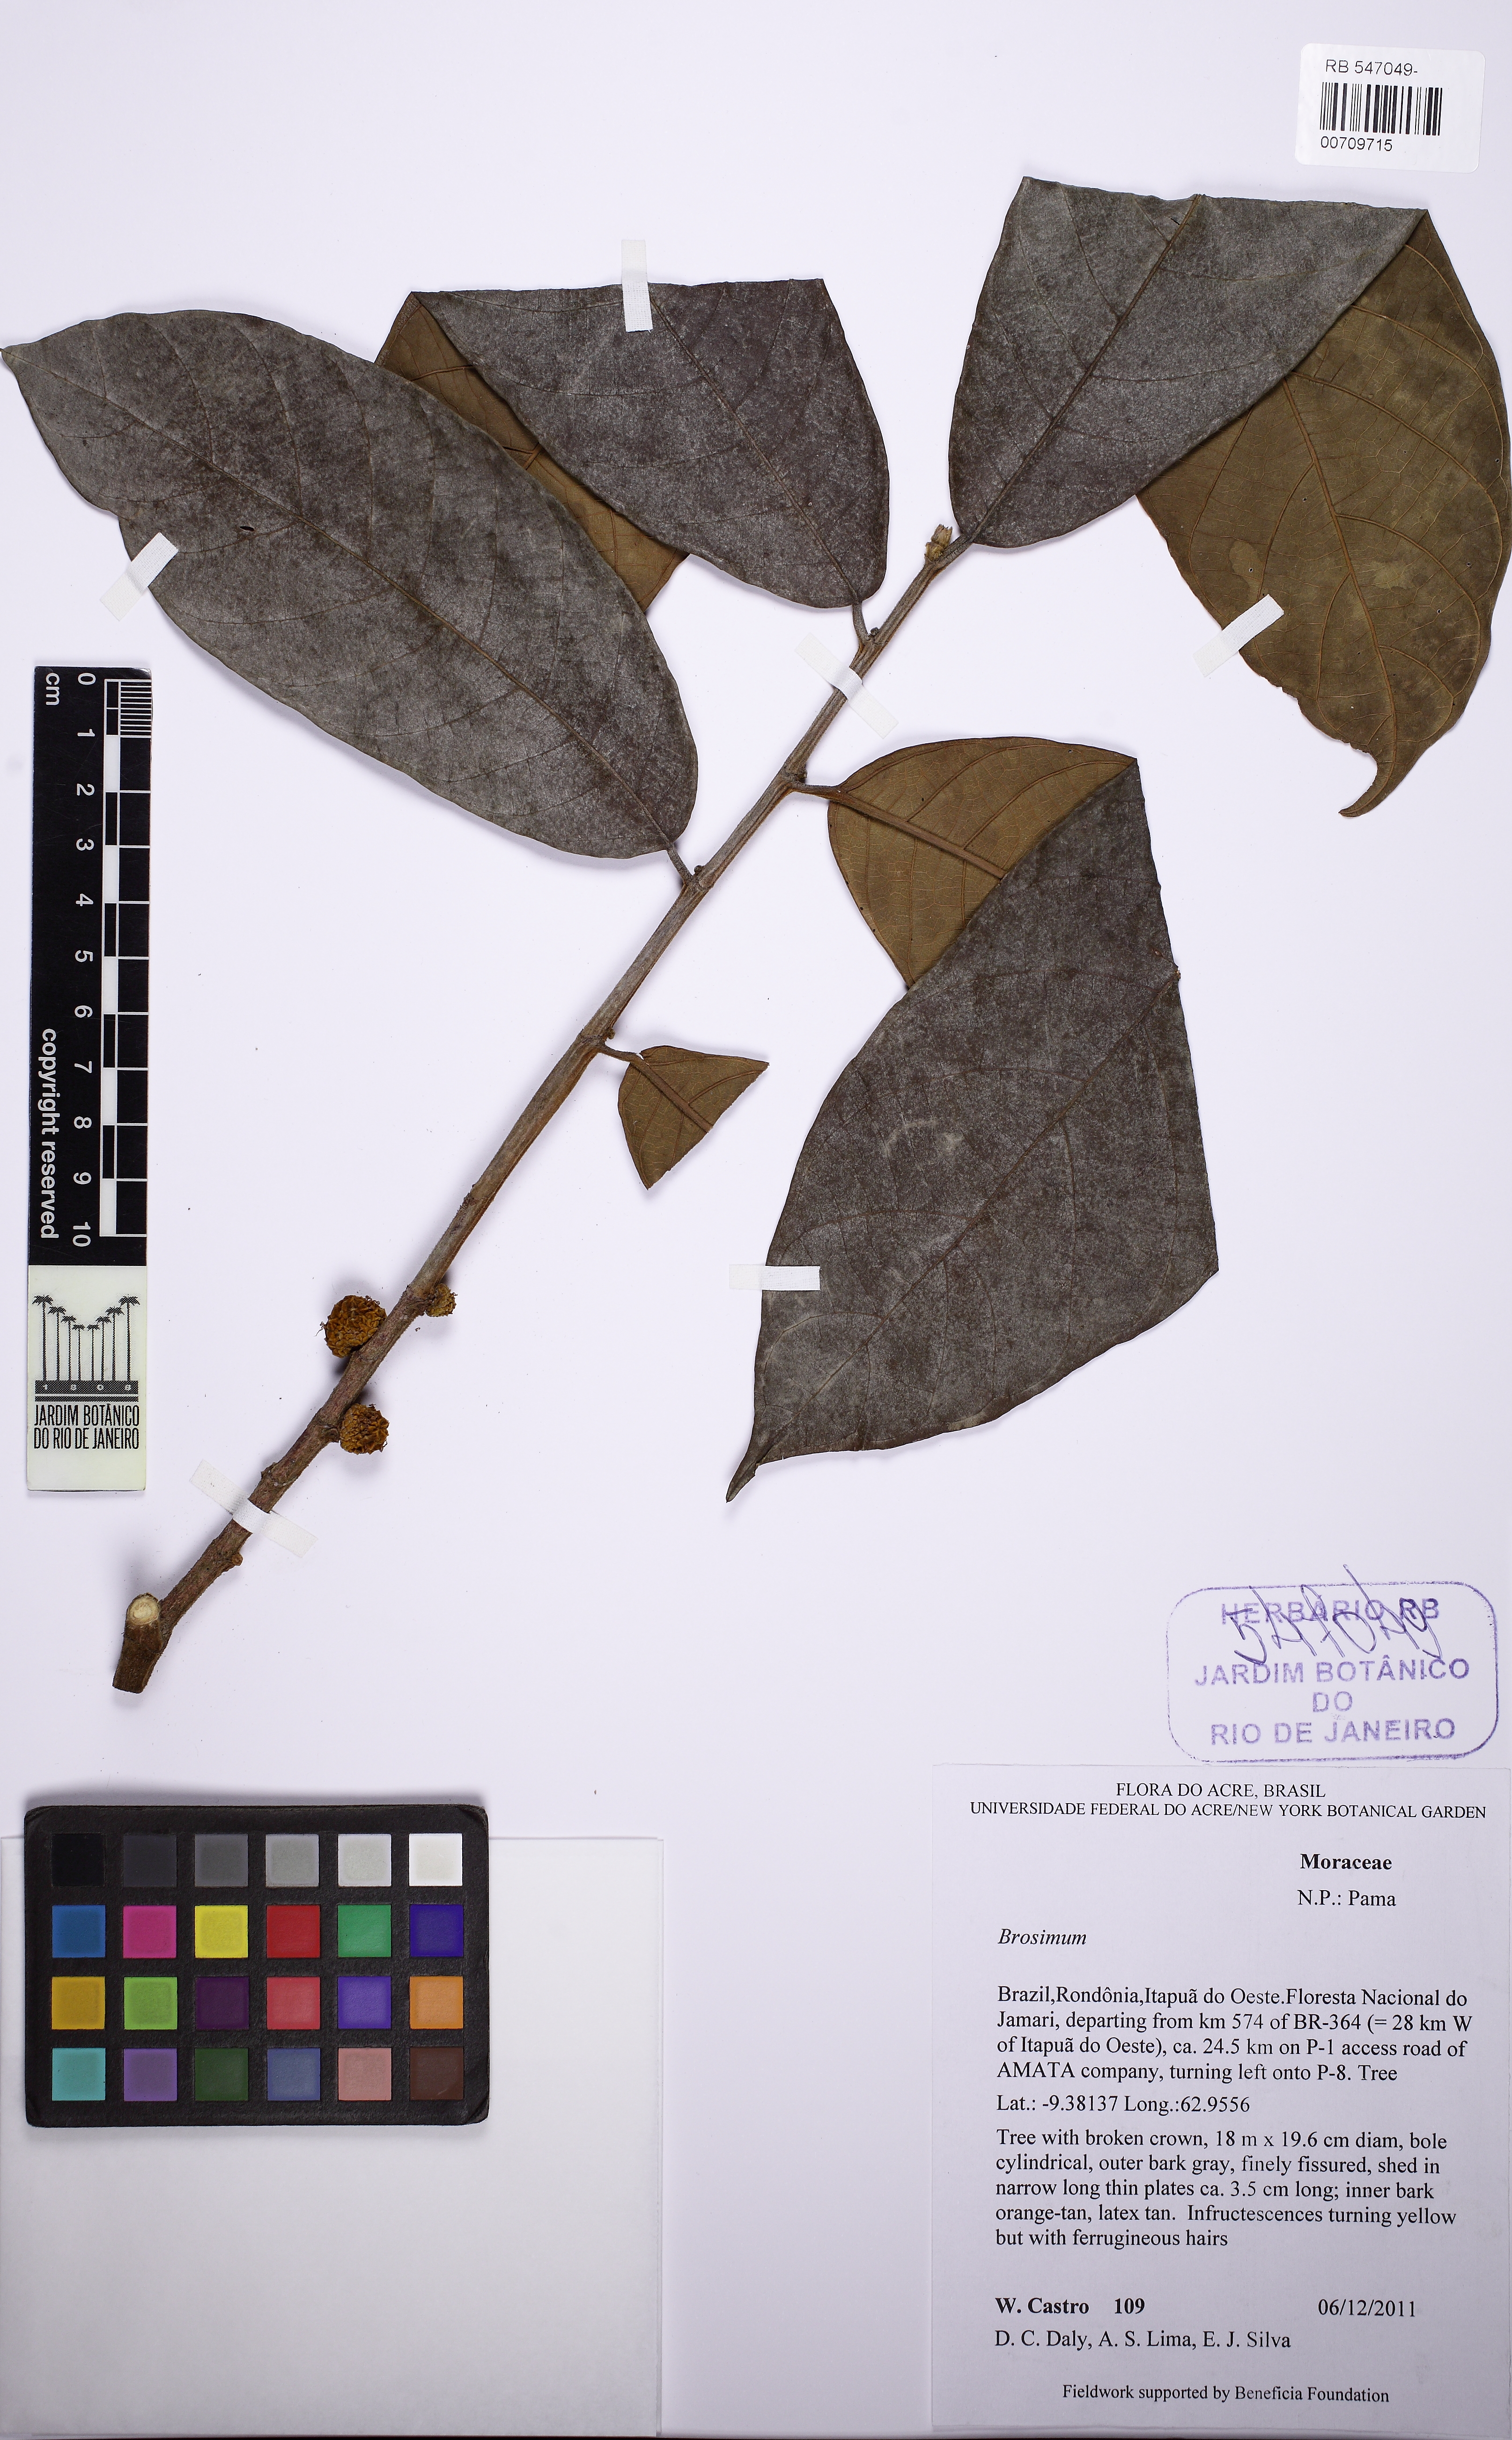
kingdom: Plantae
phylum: Tracheophyta
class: Magnoliopsida
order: Rosales
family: Moraceae
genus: Brosimum
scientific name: Brosimum
